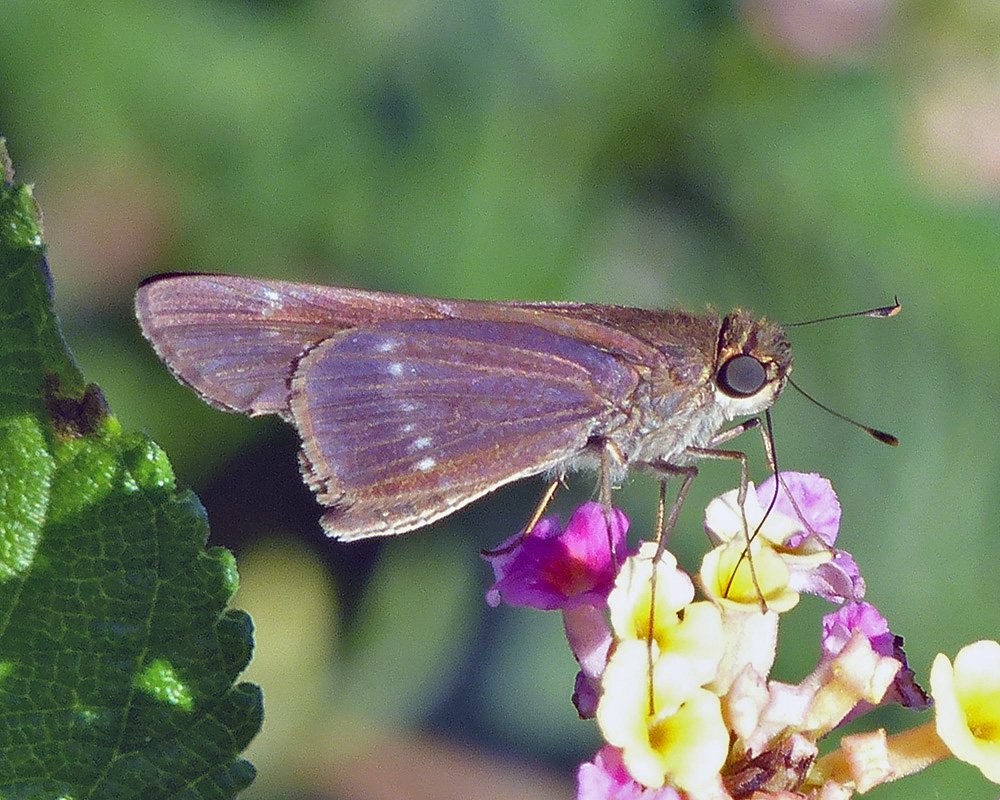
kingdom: Animalia
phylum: Arthropoda
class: Insecta
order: Lepidoptera
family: Hesperiidae
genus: Turesis
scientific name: Turesis lucas
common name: Purple-washed Skipper
